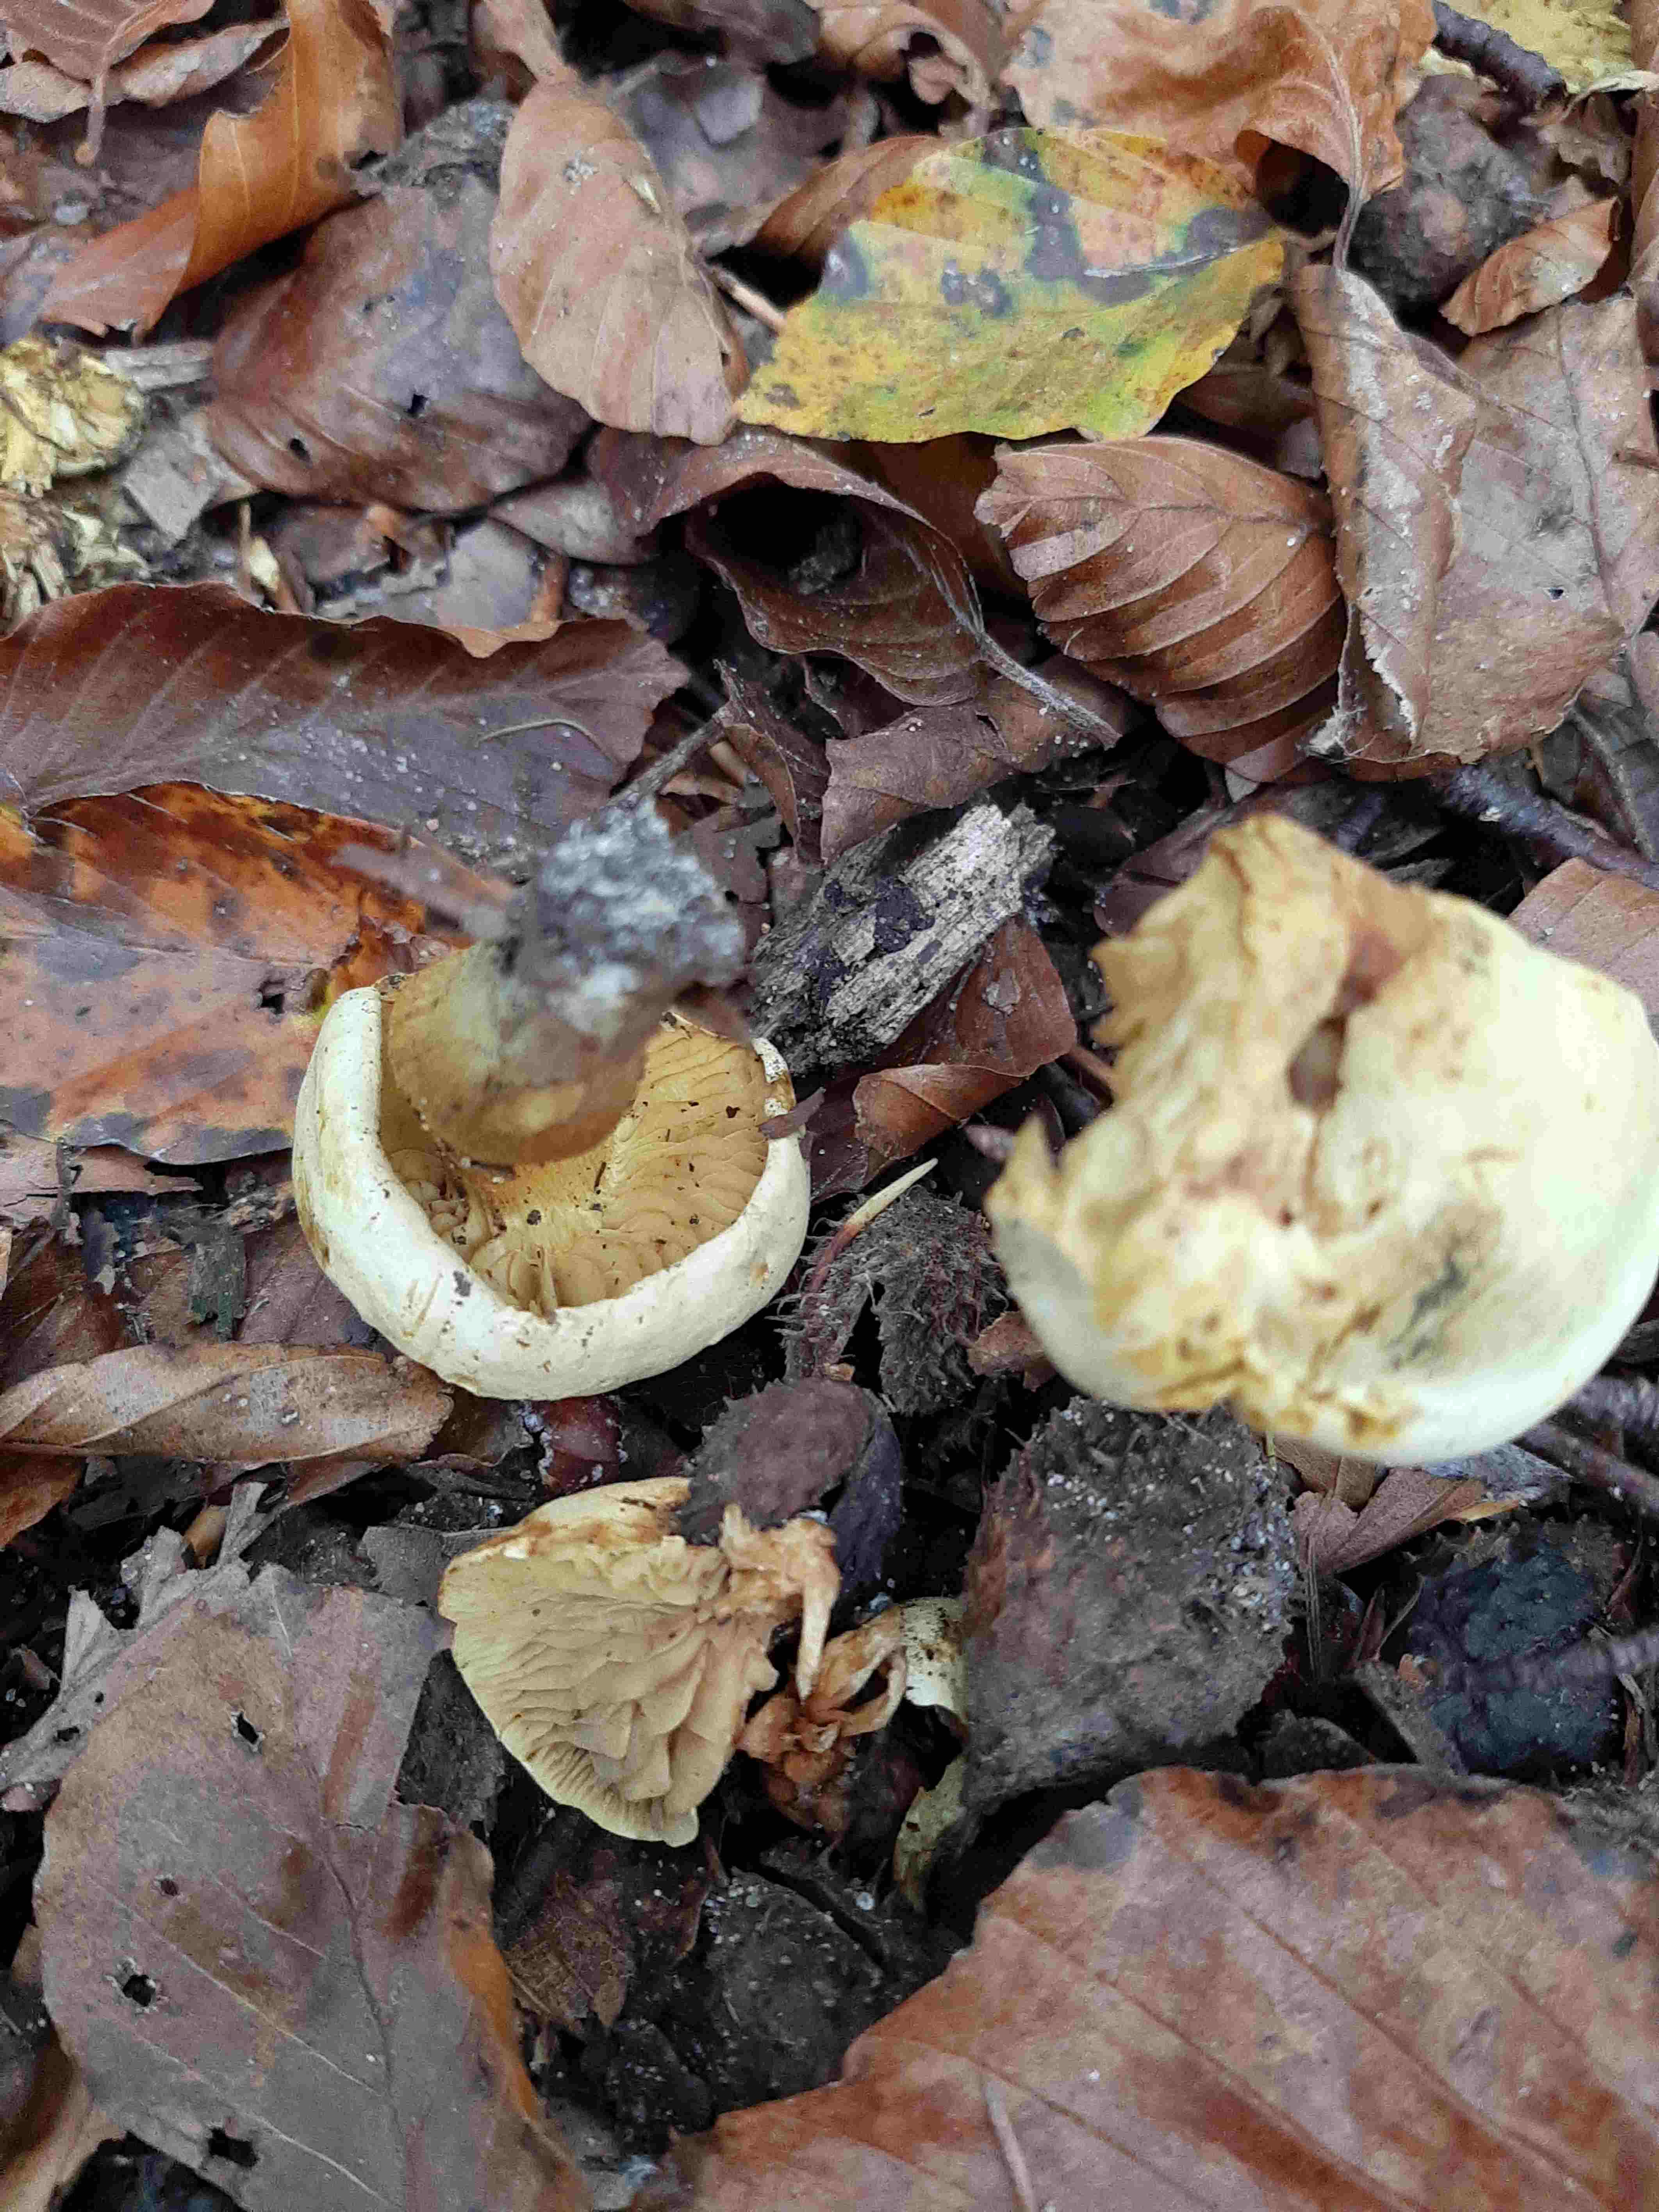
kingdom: Fungi
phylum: Basidiomycota
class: Agaricomycetes
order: Agaricales
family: Tricholomataceae
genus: Tricholoma
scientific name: Tricholoma sulphureum
